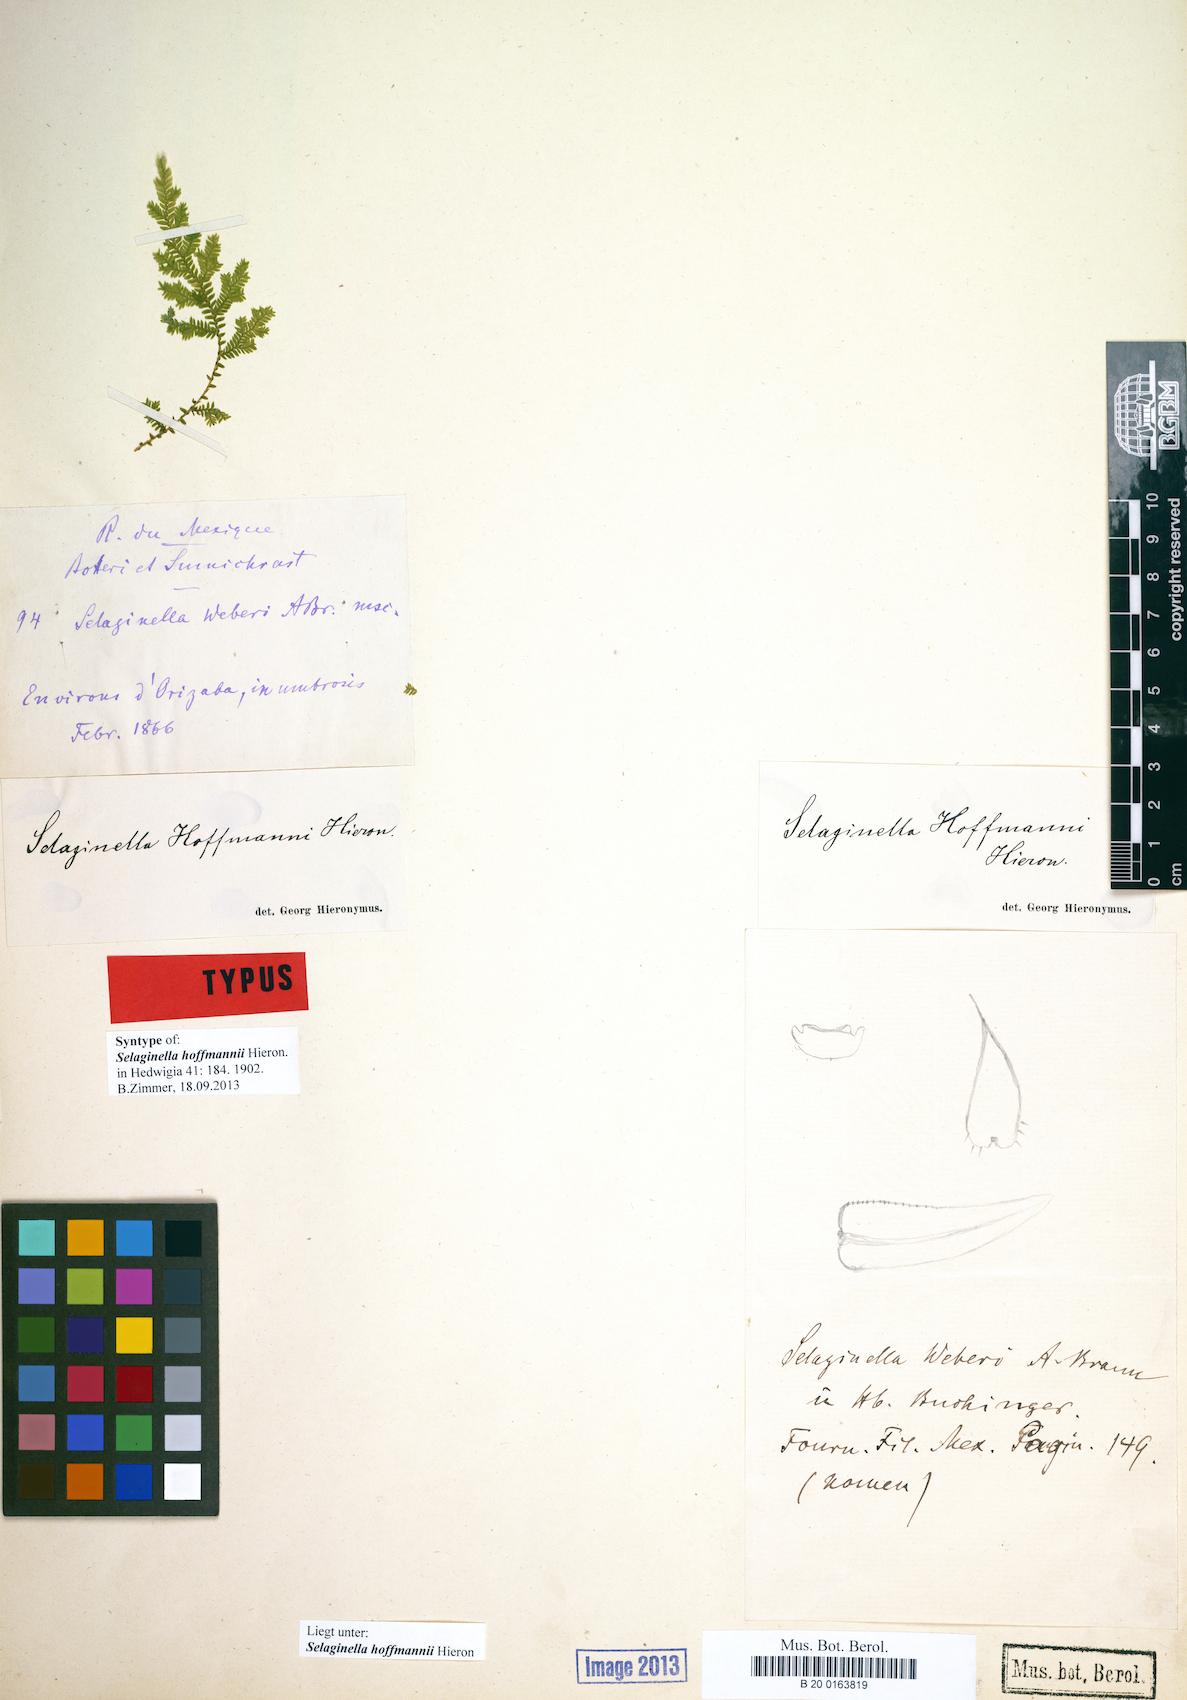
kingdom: Plantae
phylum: Tracheophyta
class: Lycopodiopsida
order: Selaginellales
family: Selaginellaceae
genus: Selaginella
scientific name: Selaginella hoffmannii
